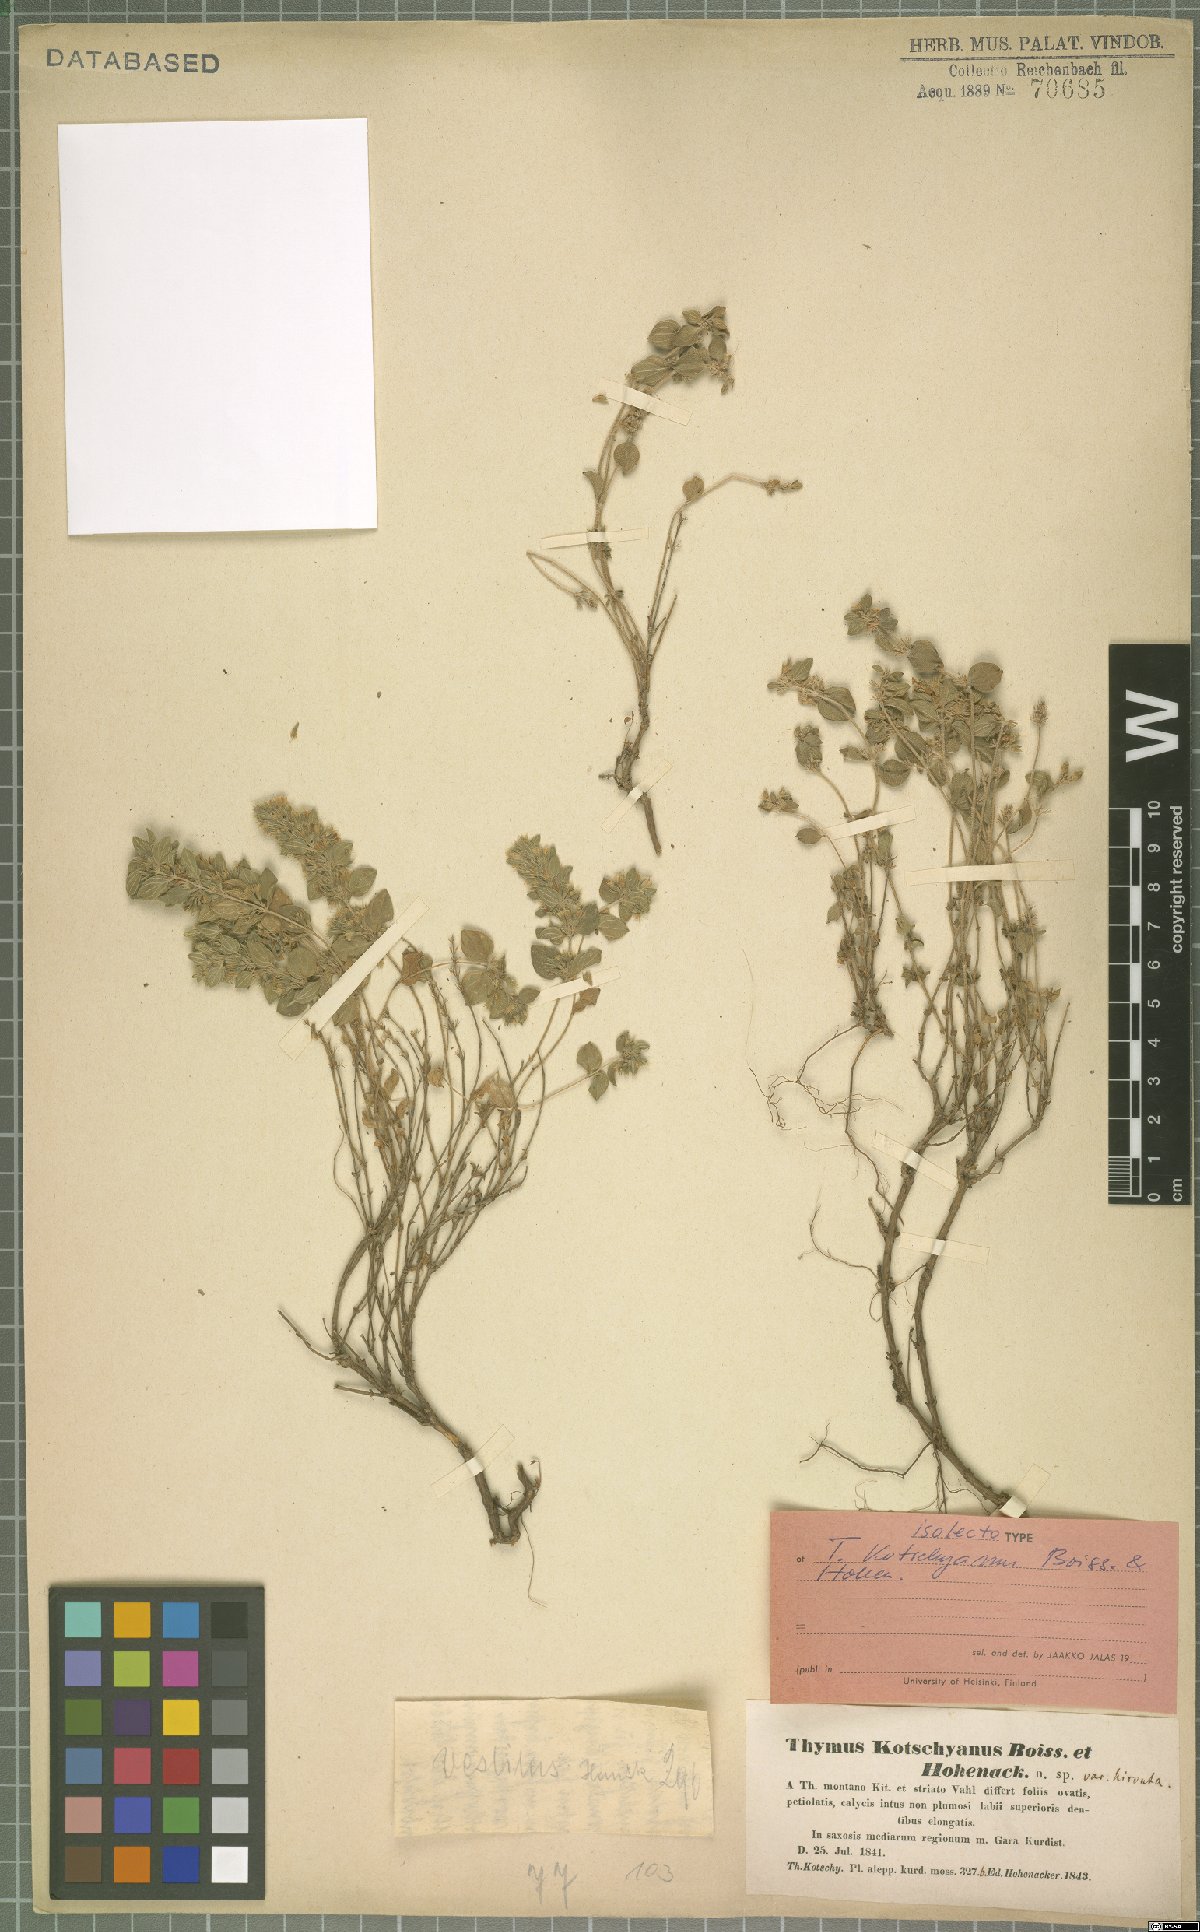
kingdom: Plantae
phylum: Tracheophyta
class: Magnoliopsida
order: Lamiales
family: Lamiaceae
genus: Thymus
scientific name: Thymus kotschyanus
